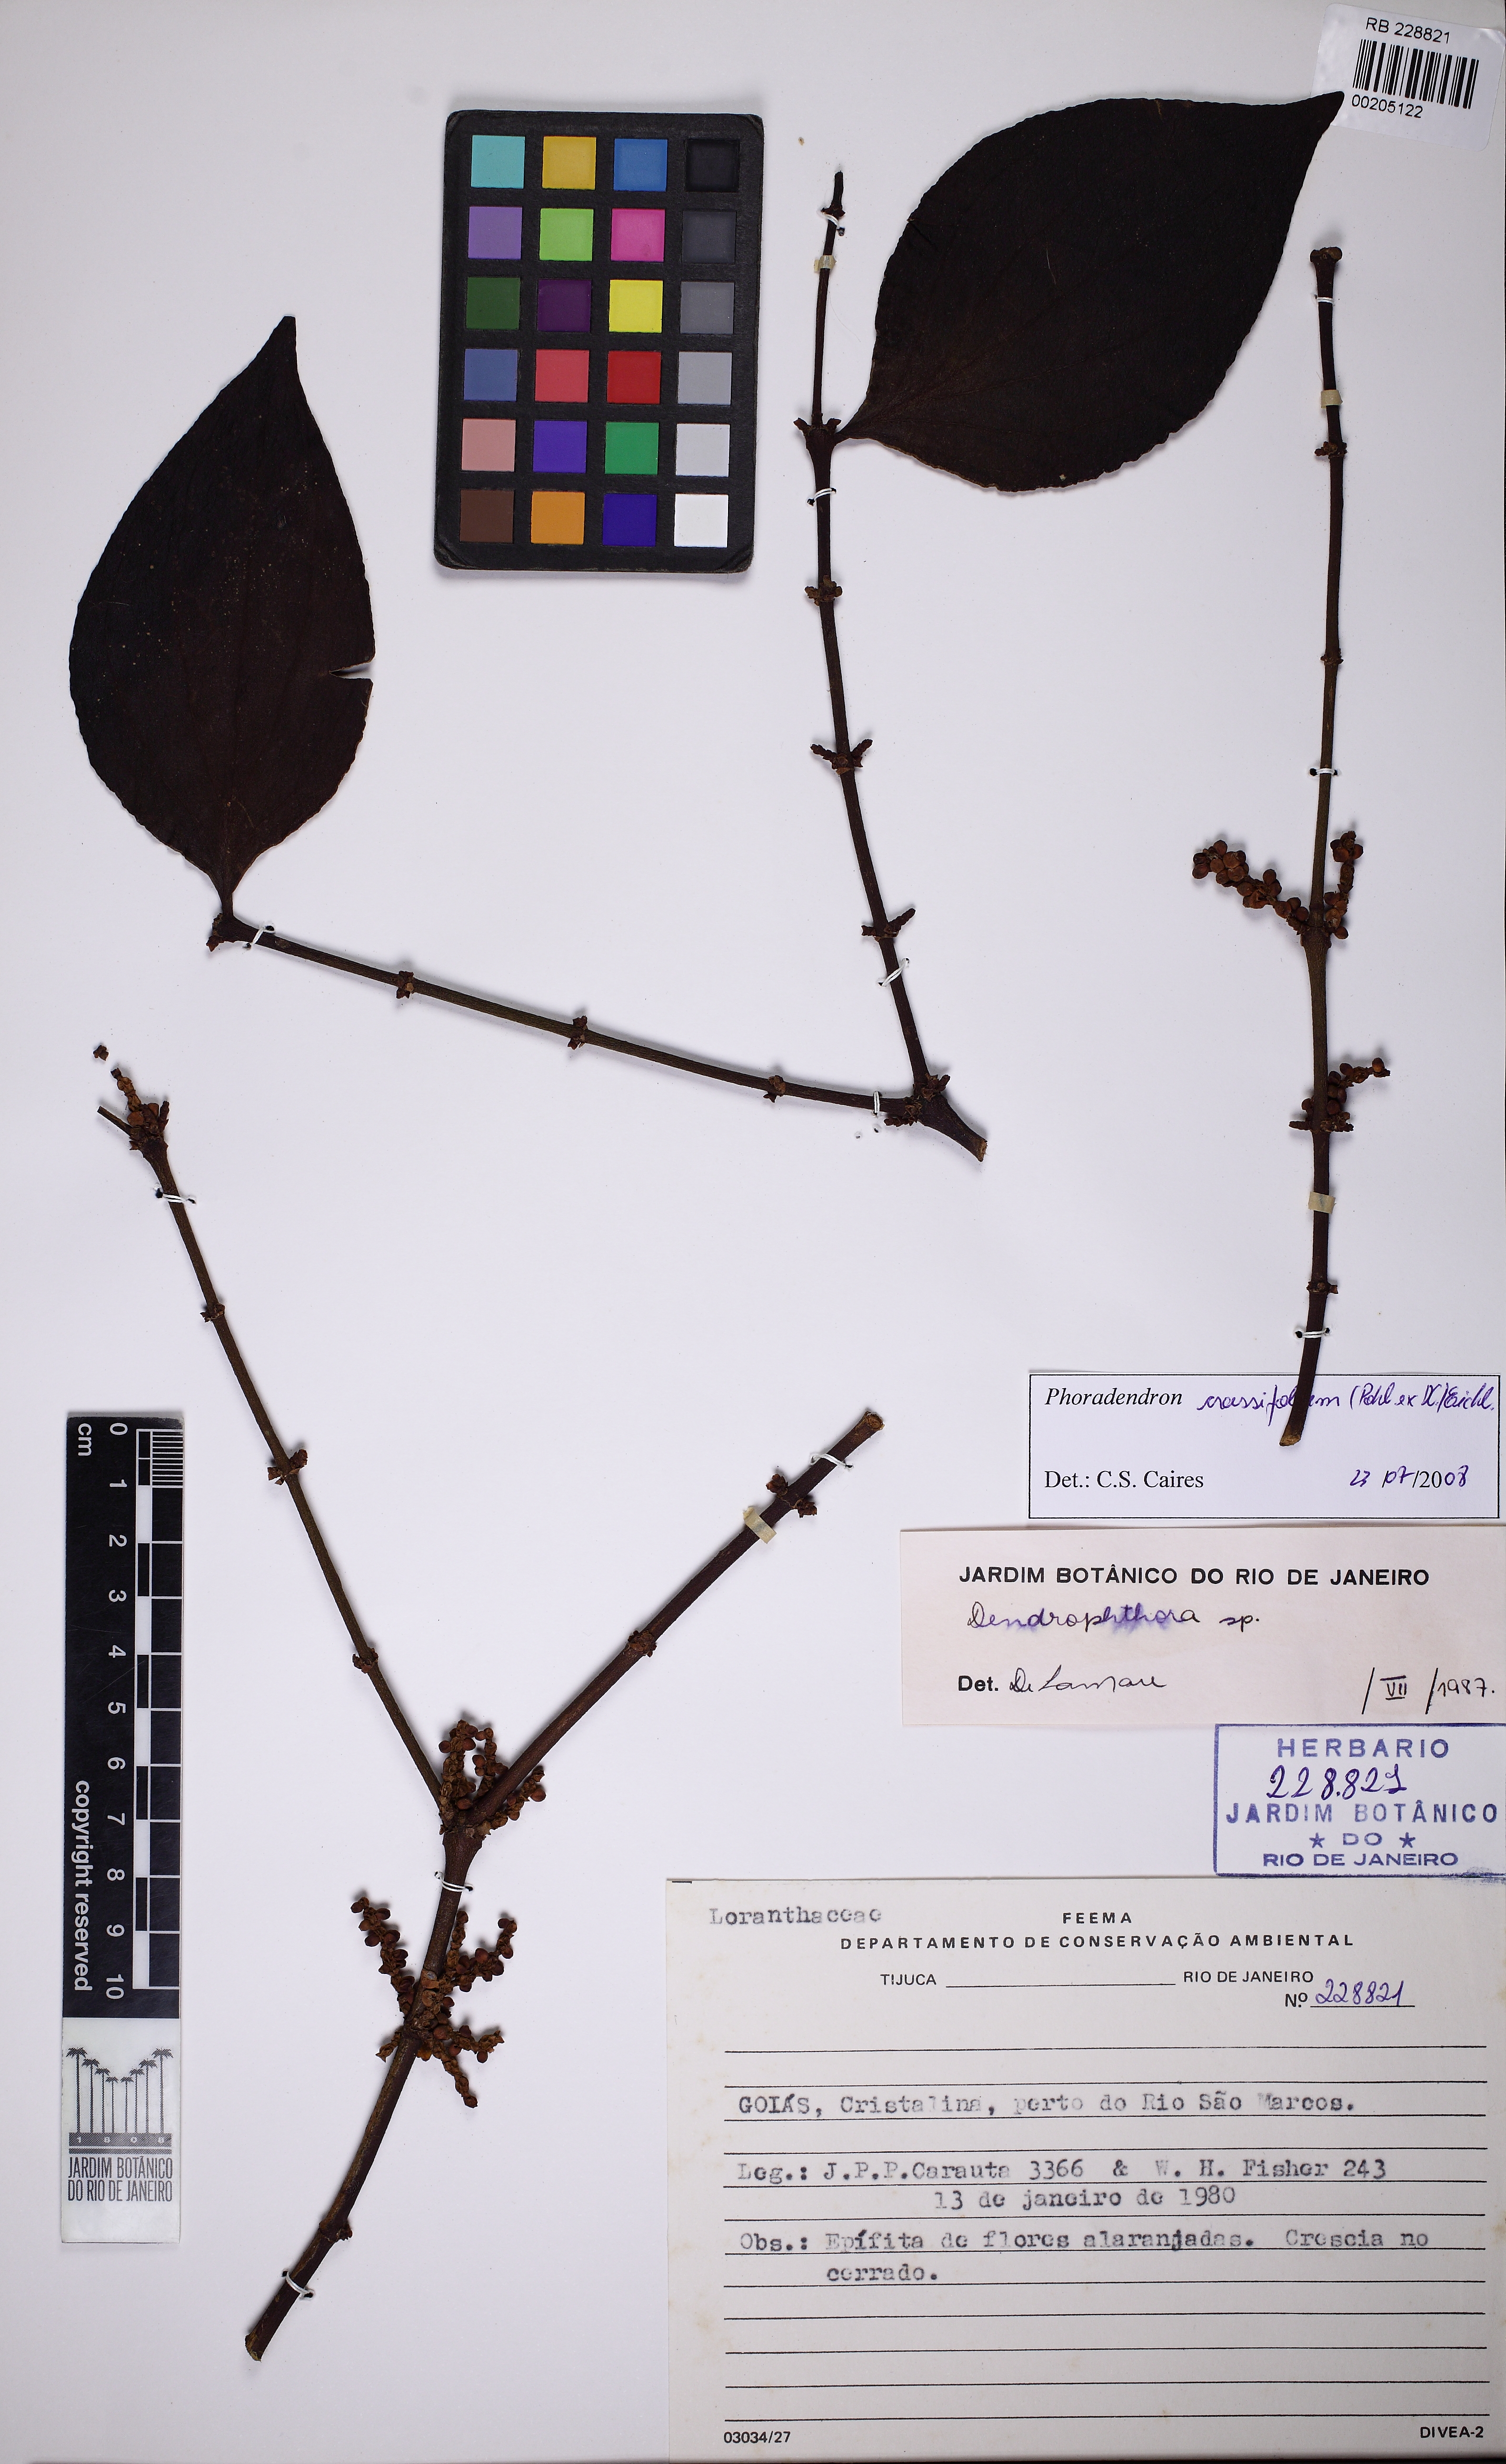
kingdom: Plantae
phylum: Tracheophyta
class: Magnoliopsida
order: Santalales
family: Viscaceae
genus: Phoradendron
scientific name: Phoradendron crassifolium
